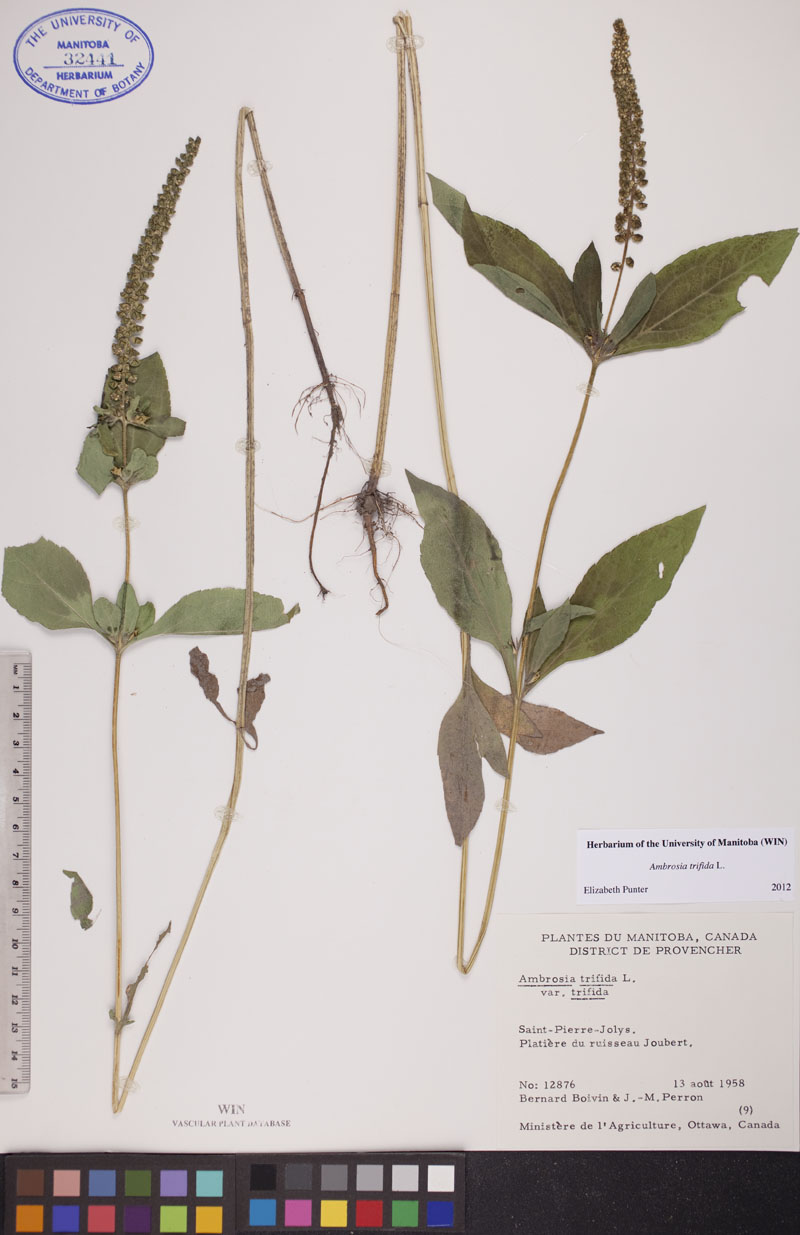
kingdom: Plantae
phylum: Tracheophyta
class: Magnoliopsida
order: Asterales
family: Asteraceae
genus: Ambrosia
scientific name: Ambrosia trifida
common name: Giant ragweed
